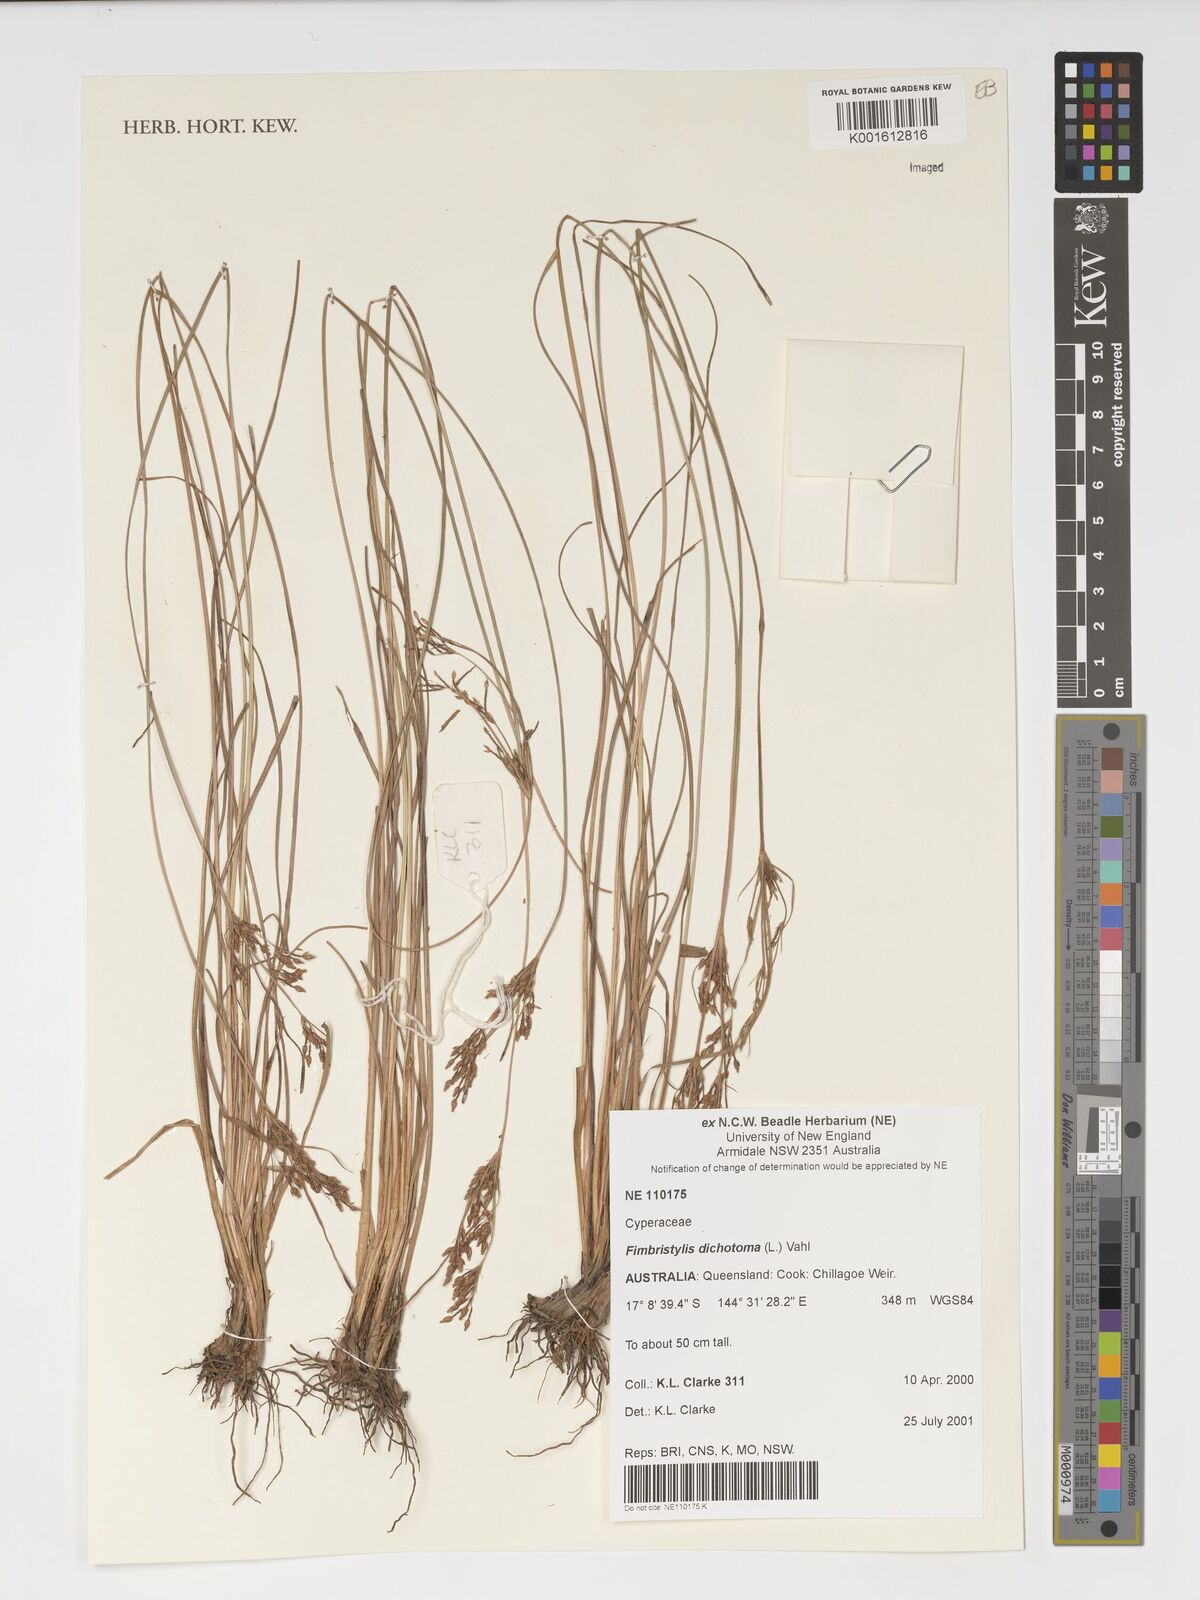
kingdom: Plantae
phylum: Tracheophyta
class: Liliopsida
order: Poales
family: Cyperaceae
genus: Fimbristylis
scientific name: Fimbristylis dichotoma
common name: Forked fimbry
